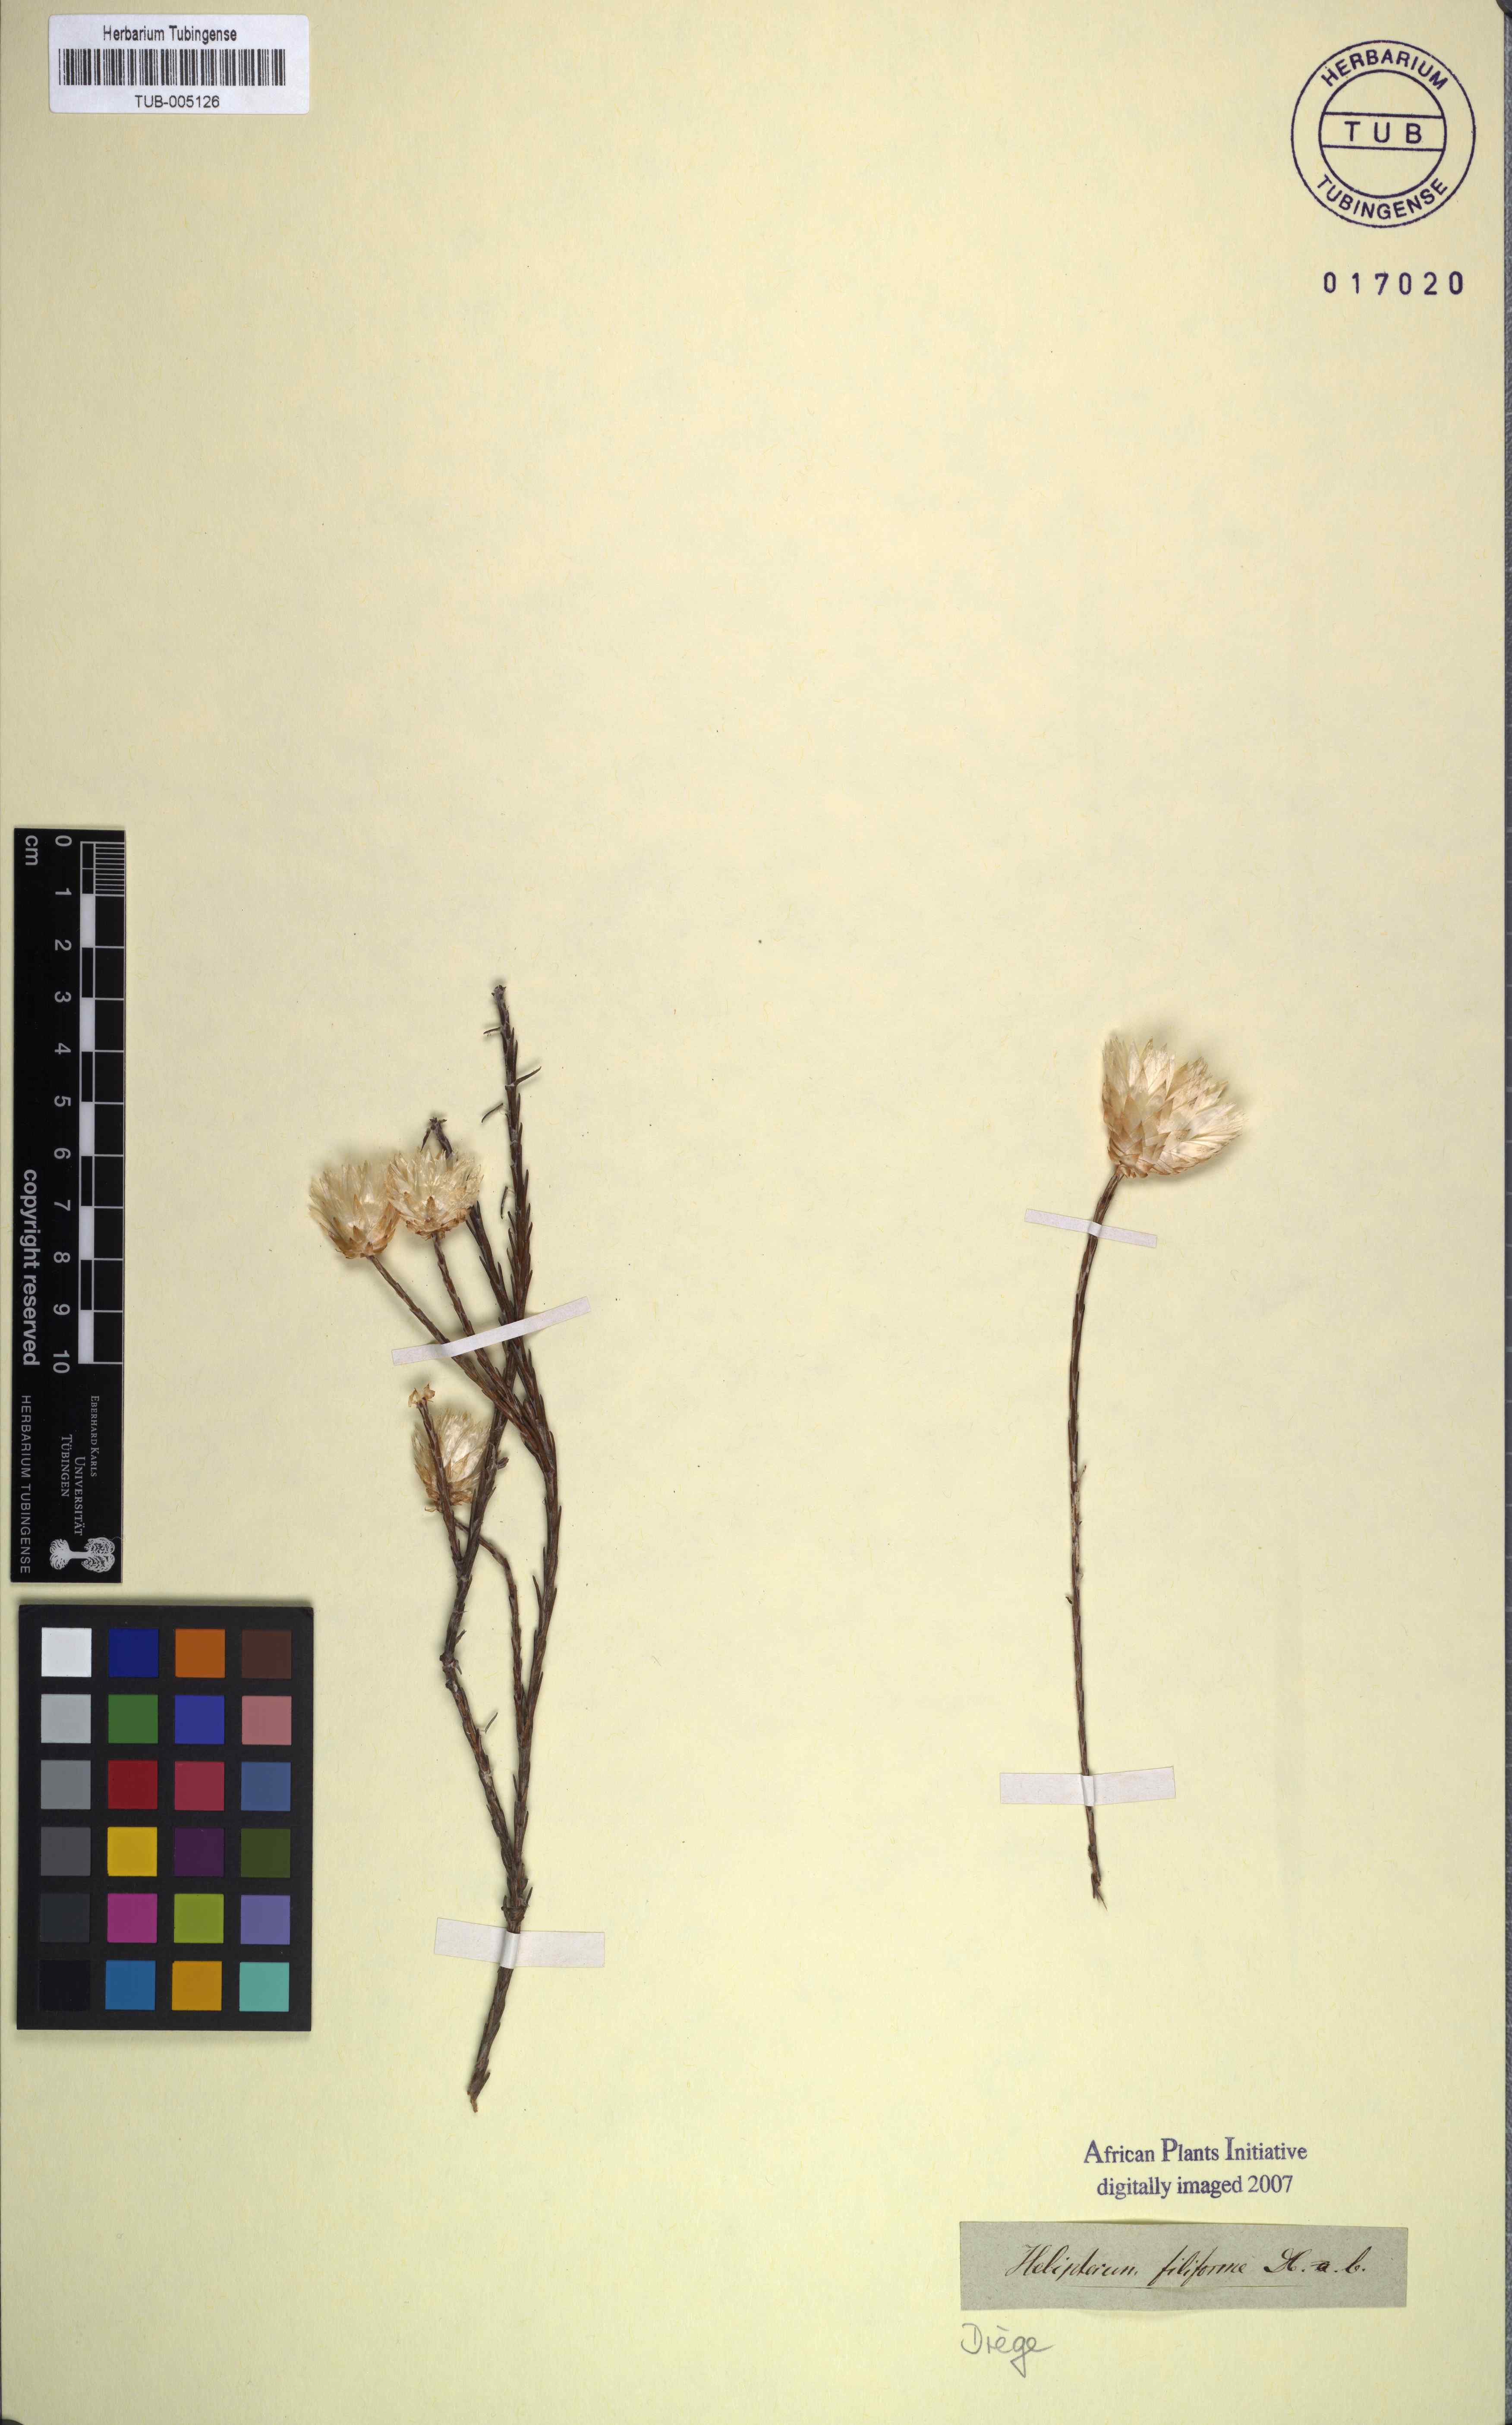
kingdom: Plantae
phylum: Tracheophyta
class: Magnoliopsida
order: Asterales
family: Asteraceae
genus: Edmondia
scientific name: Edmondia sesamoides
